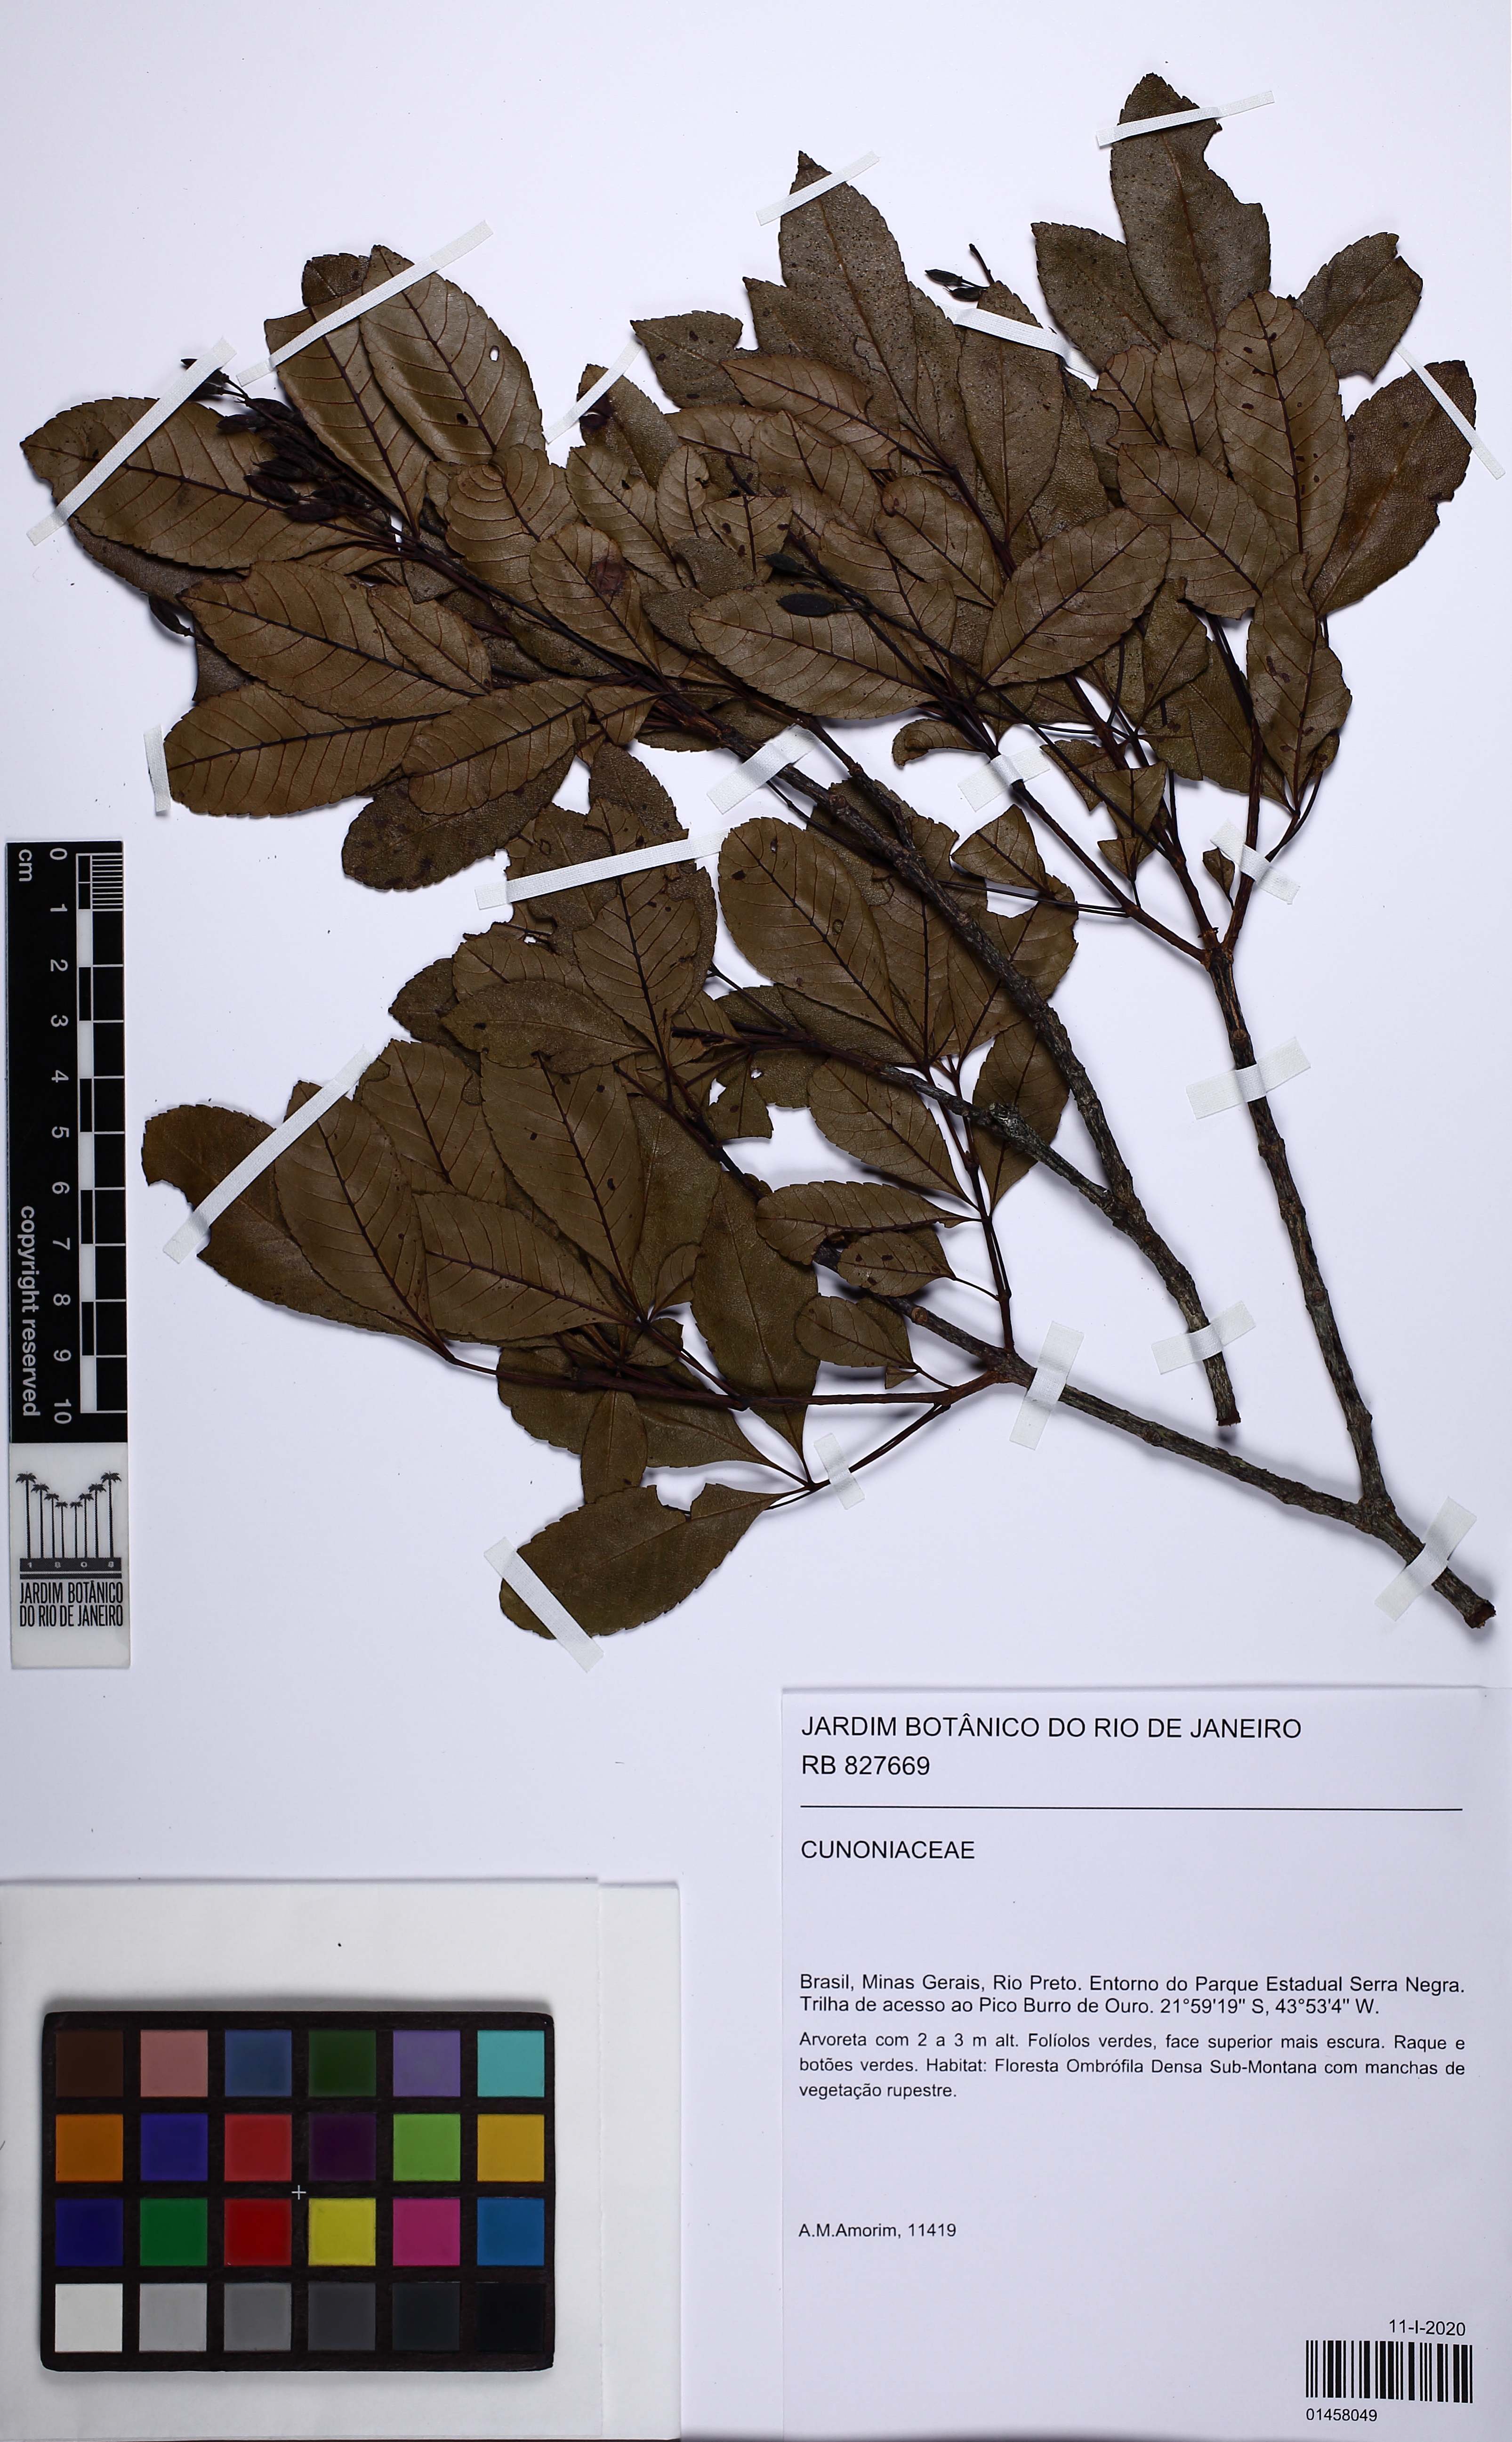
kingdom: Plantae
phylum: Tracheophyta
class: Magnoliopsida
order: Oxalidales
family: Cunoniaceae
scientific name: Cunoniaceae
